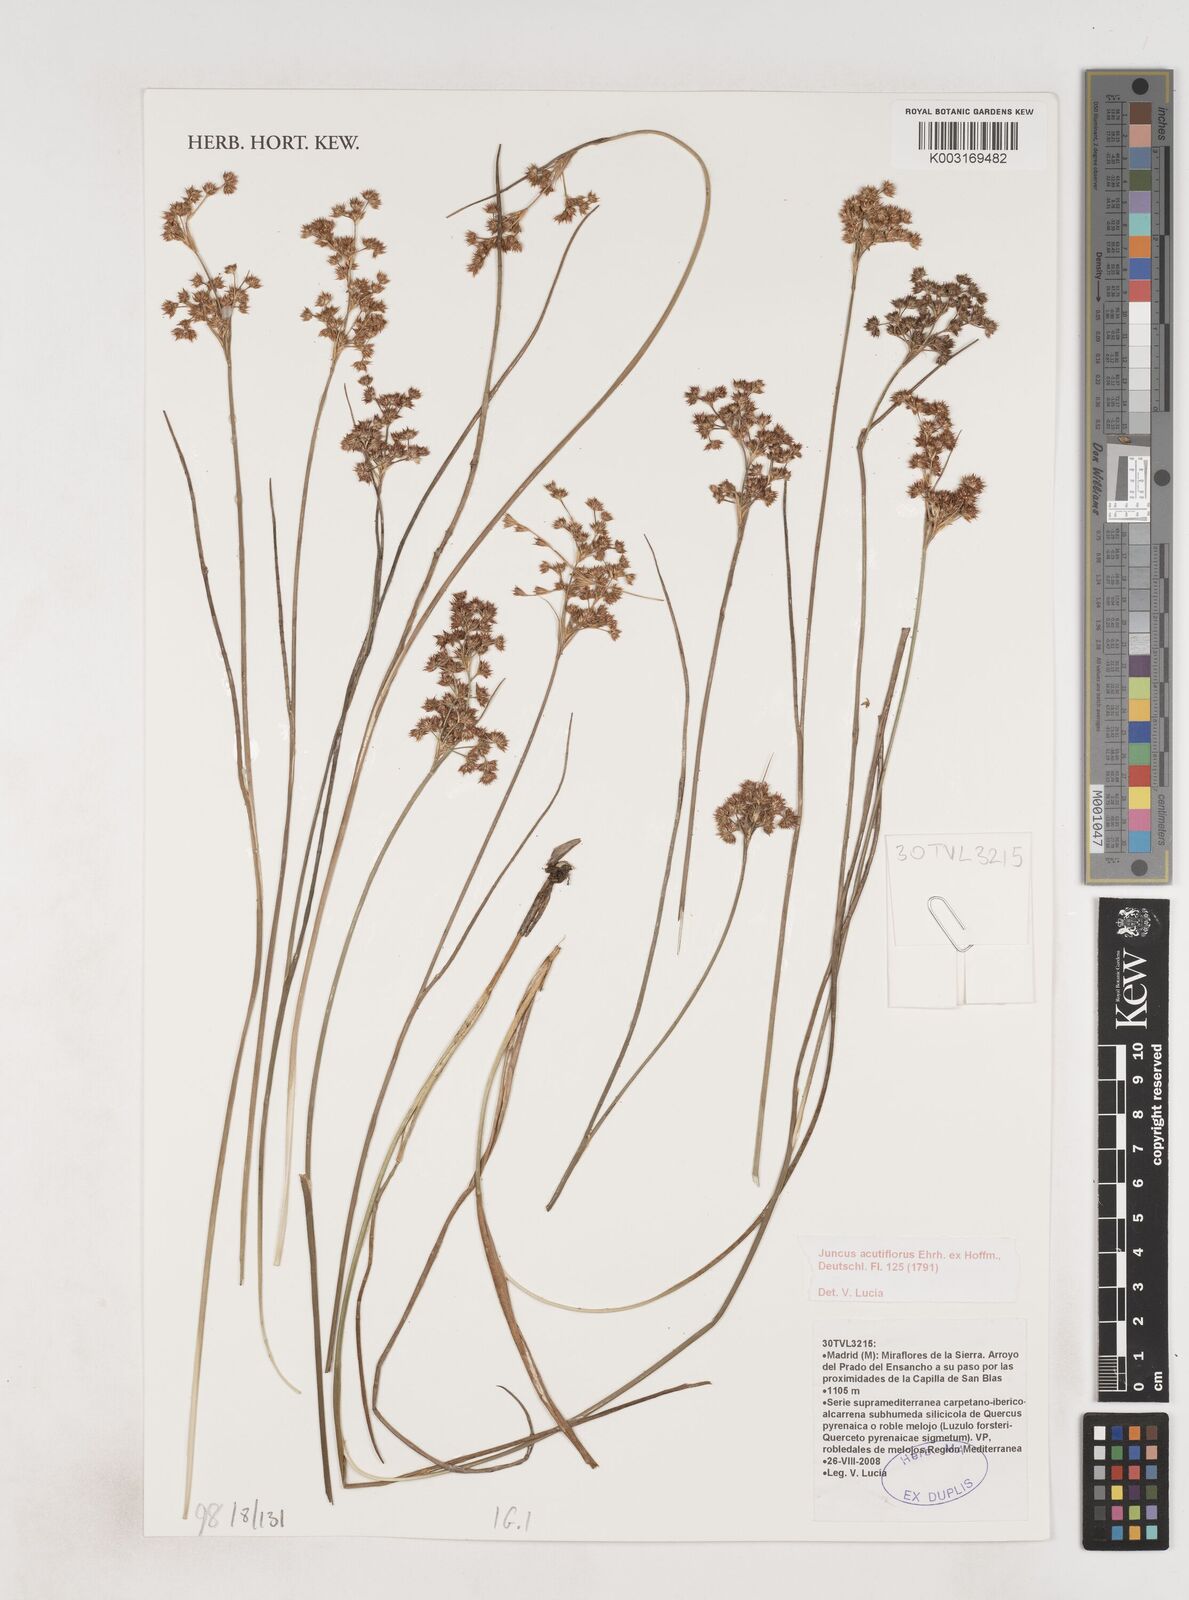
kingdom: Plantae
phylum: Tracheophyta
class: Liliopsida
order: Poales
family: Juncaceae
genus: Juncus
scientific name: Juncus acutiflorus
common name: Sharp-flowered rush
